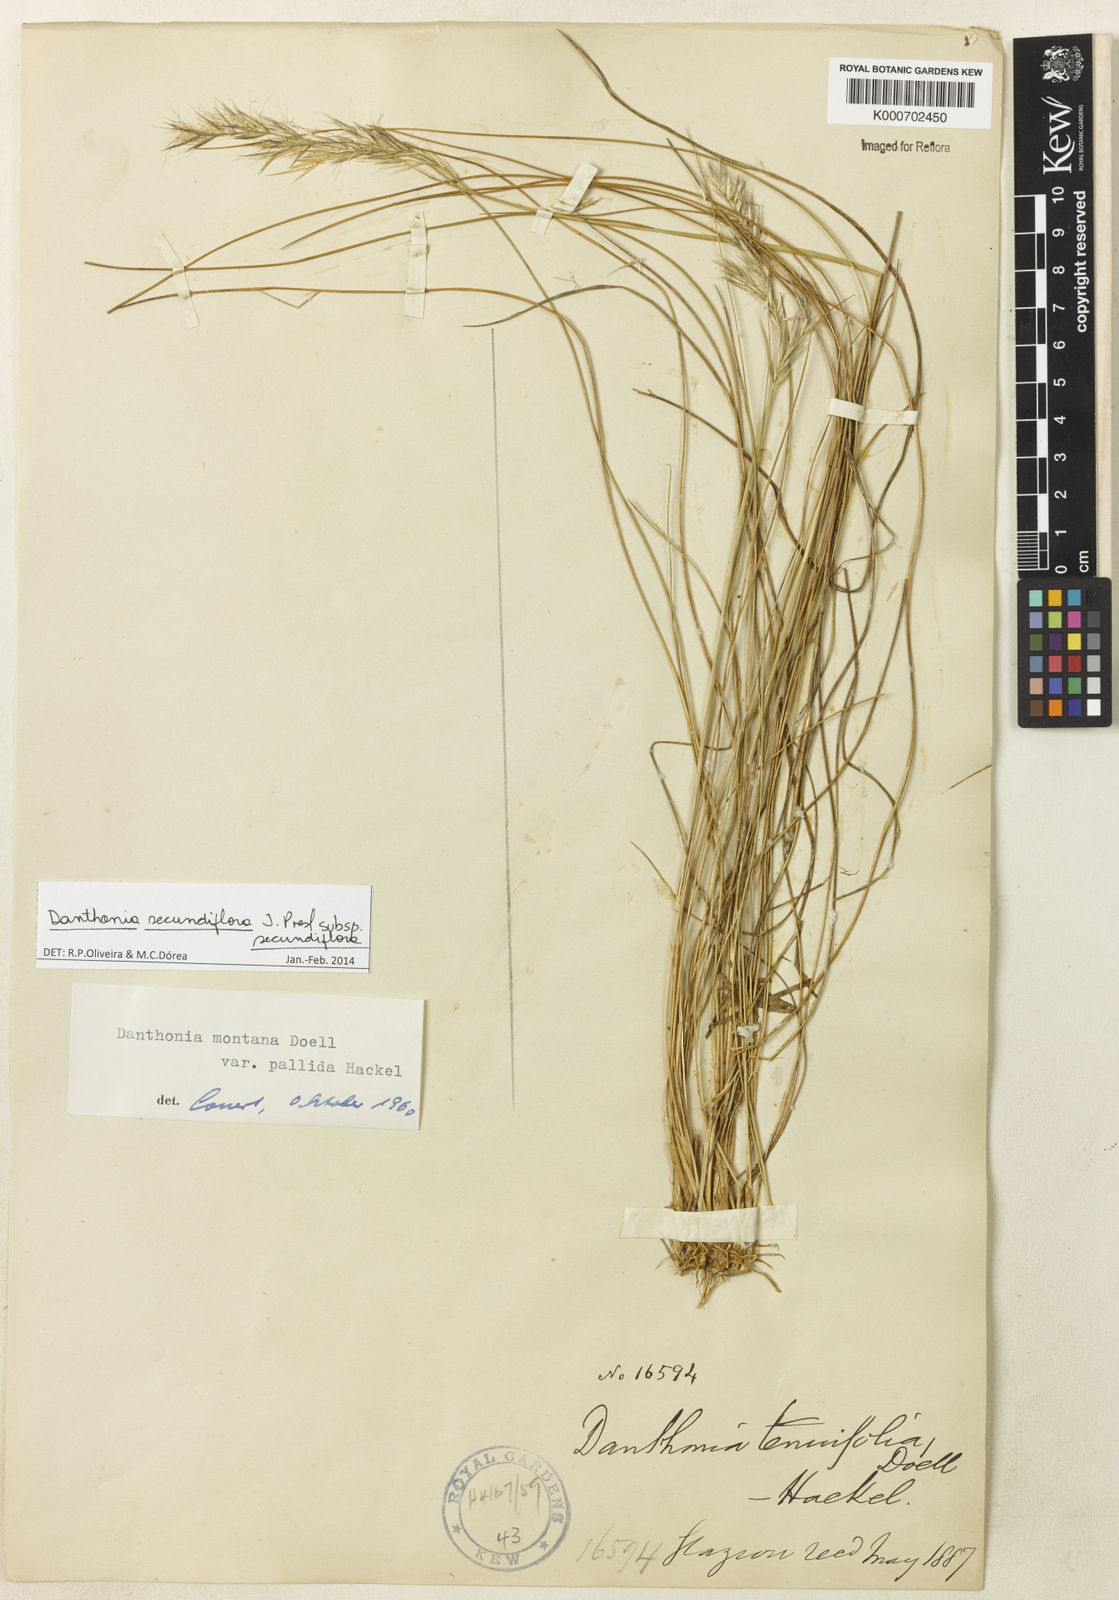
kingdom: Plantae
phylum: Tracheophyta
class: Liliopsida
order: Poales
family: Poaceae
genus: Danthonia
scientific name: Danthonia secundiflora
